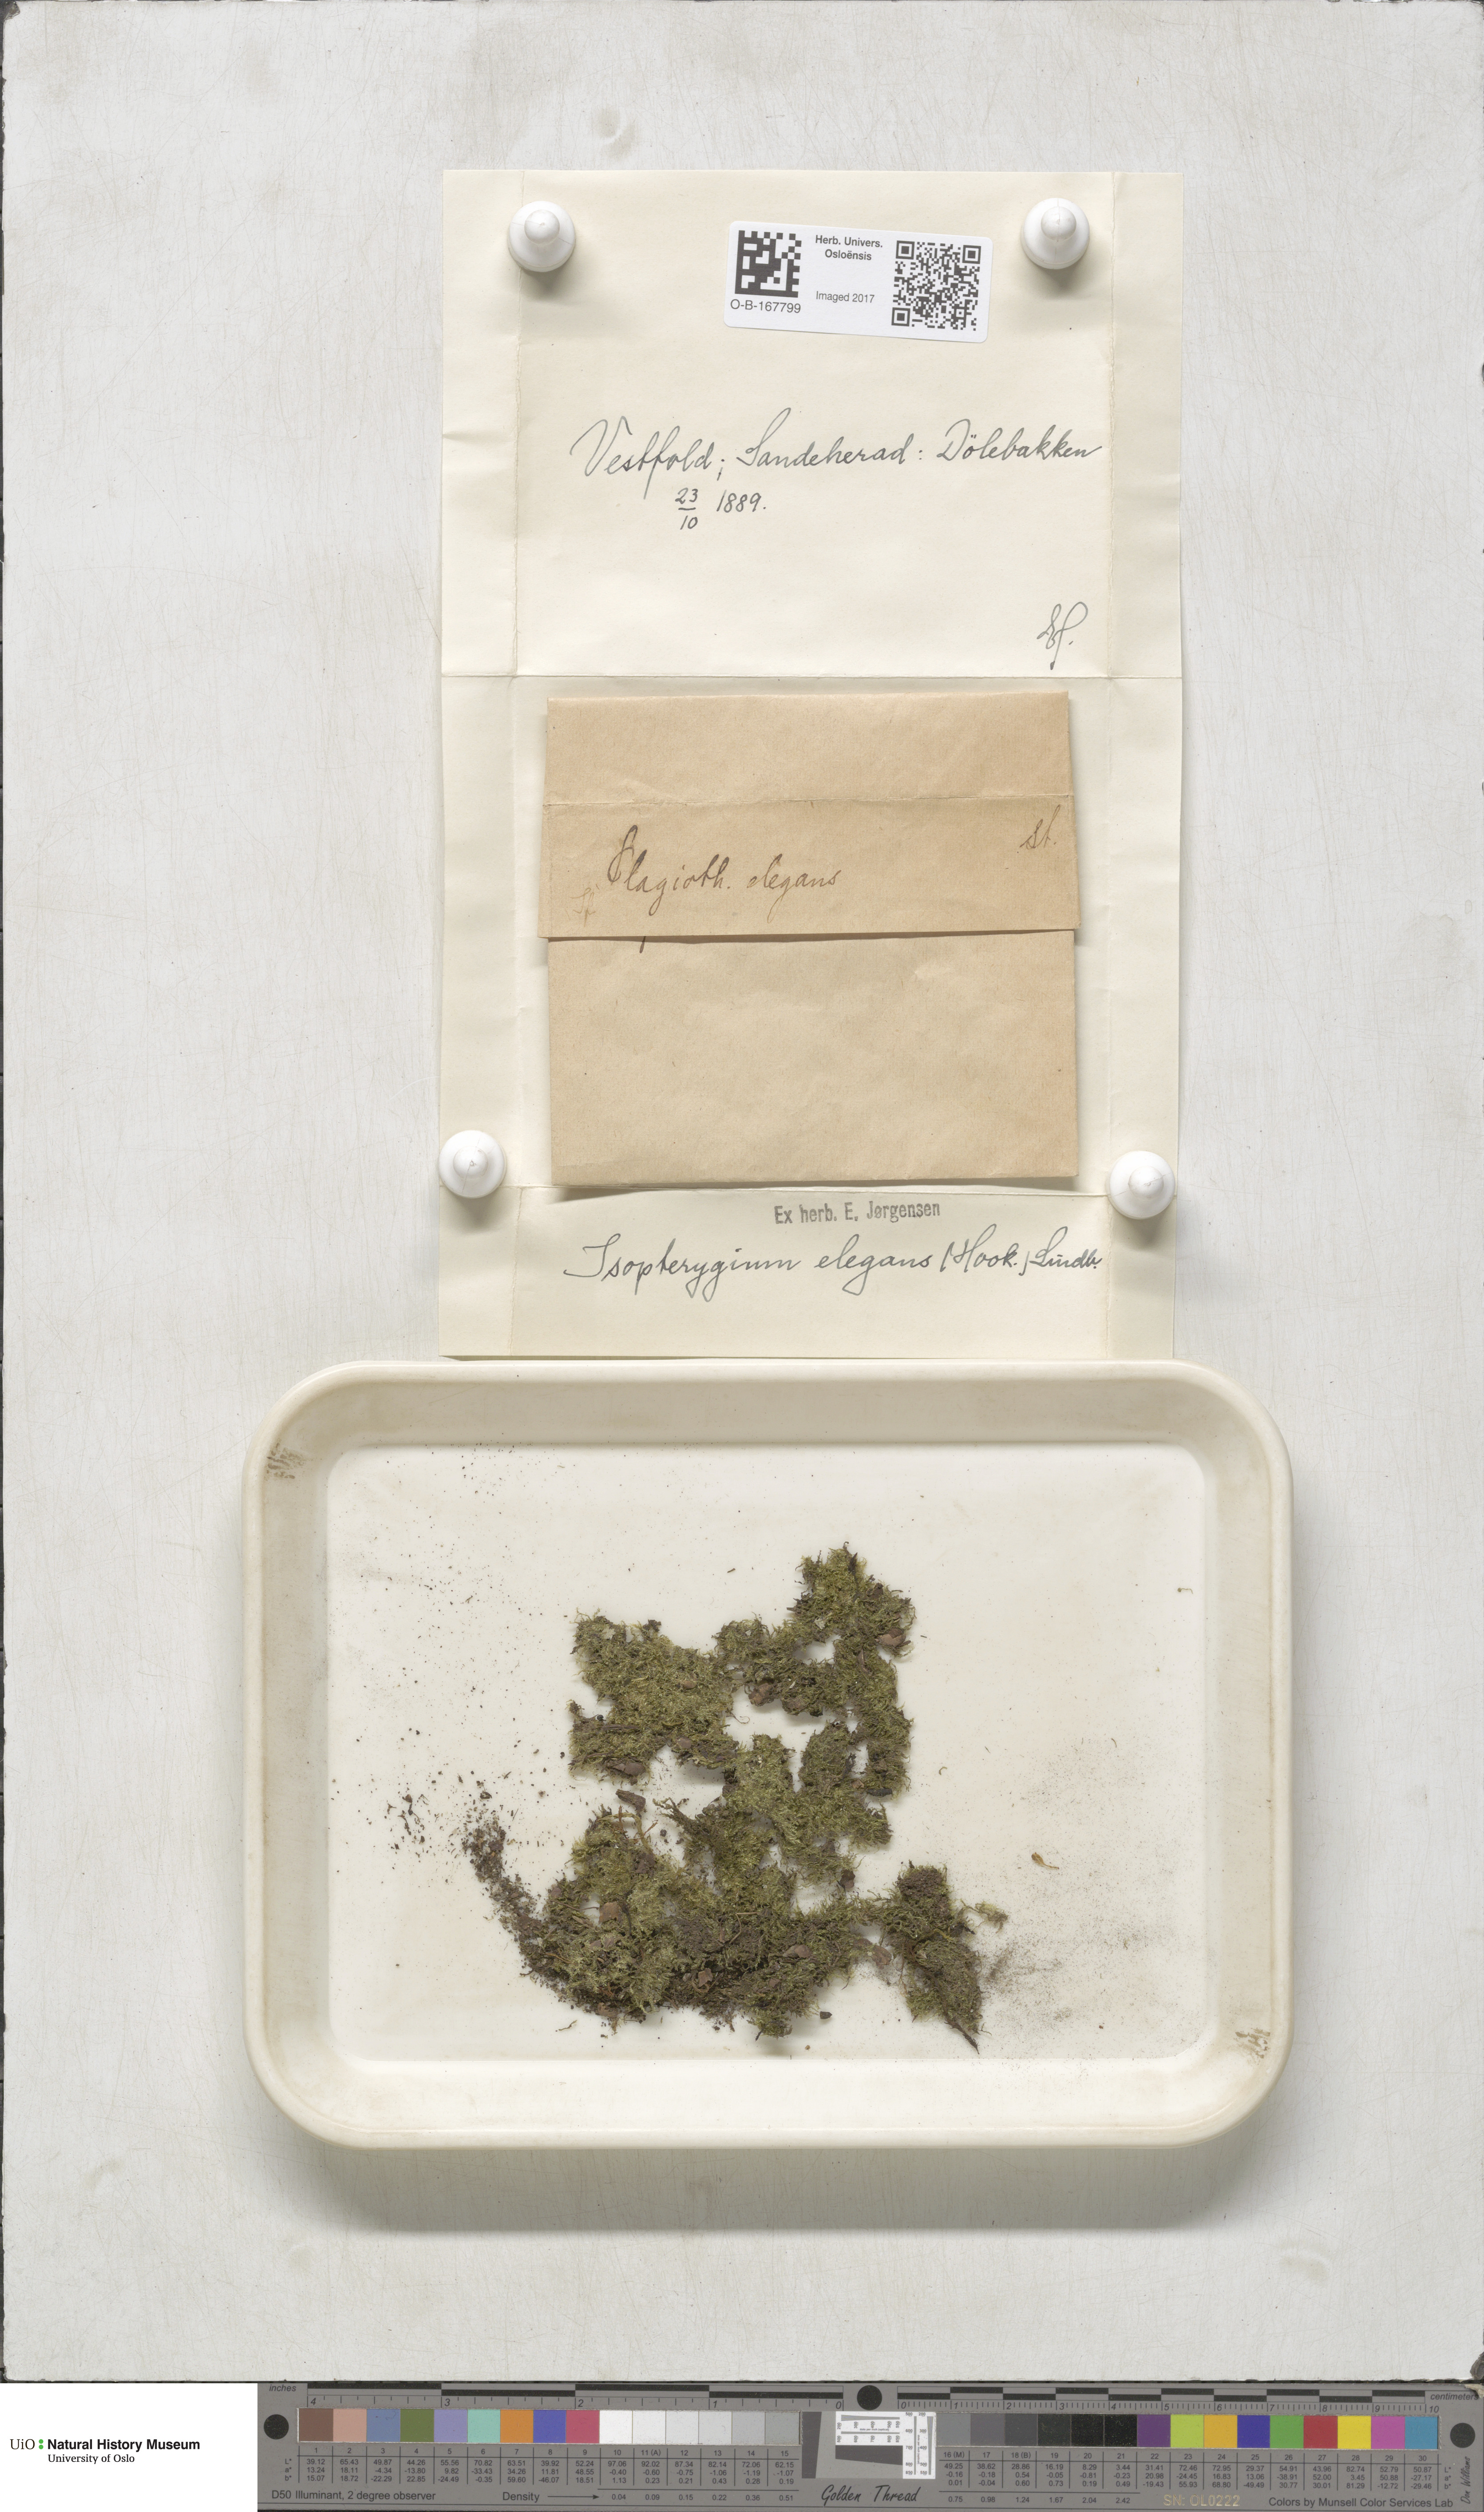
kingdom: Plantae
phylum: Bryophyta
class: Bryopsida
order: Hypnales
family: Plagiotheciaceae
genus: Pseudotaxiphyllum
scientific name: Pseudotaxiphyllum elegans
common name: Elegant silk moss
